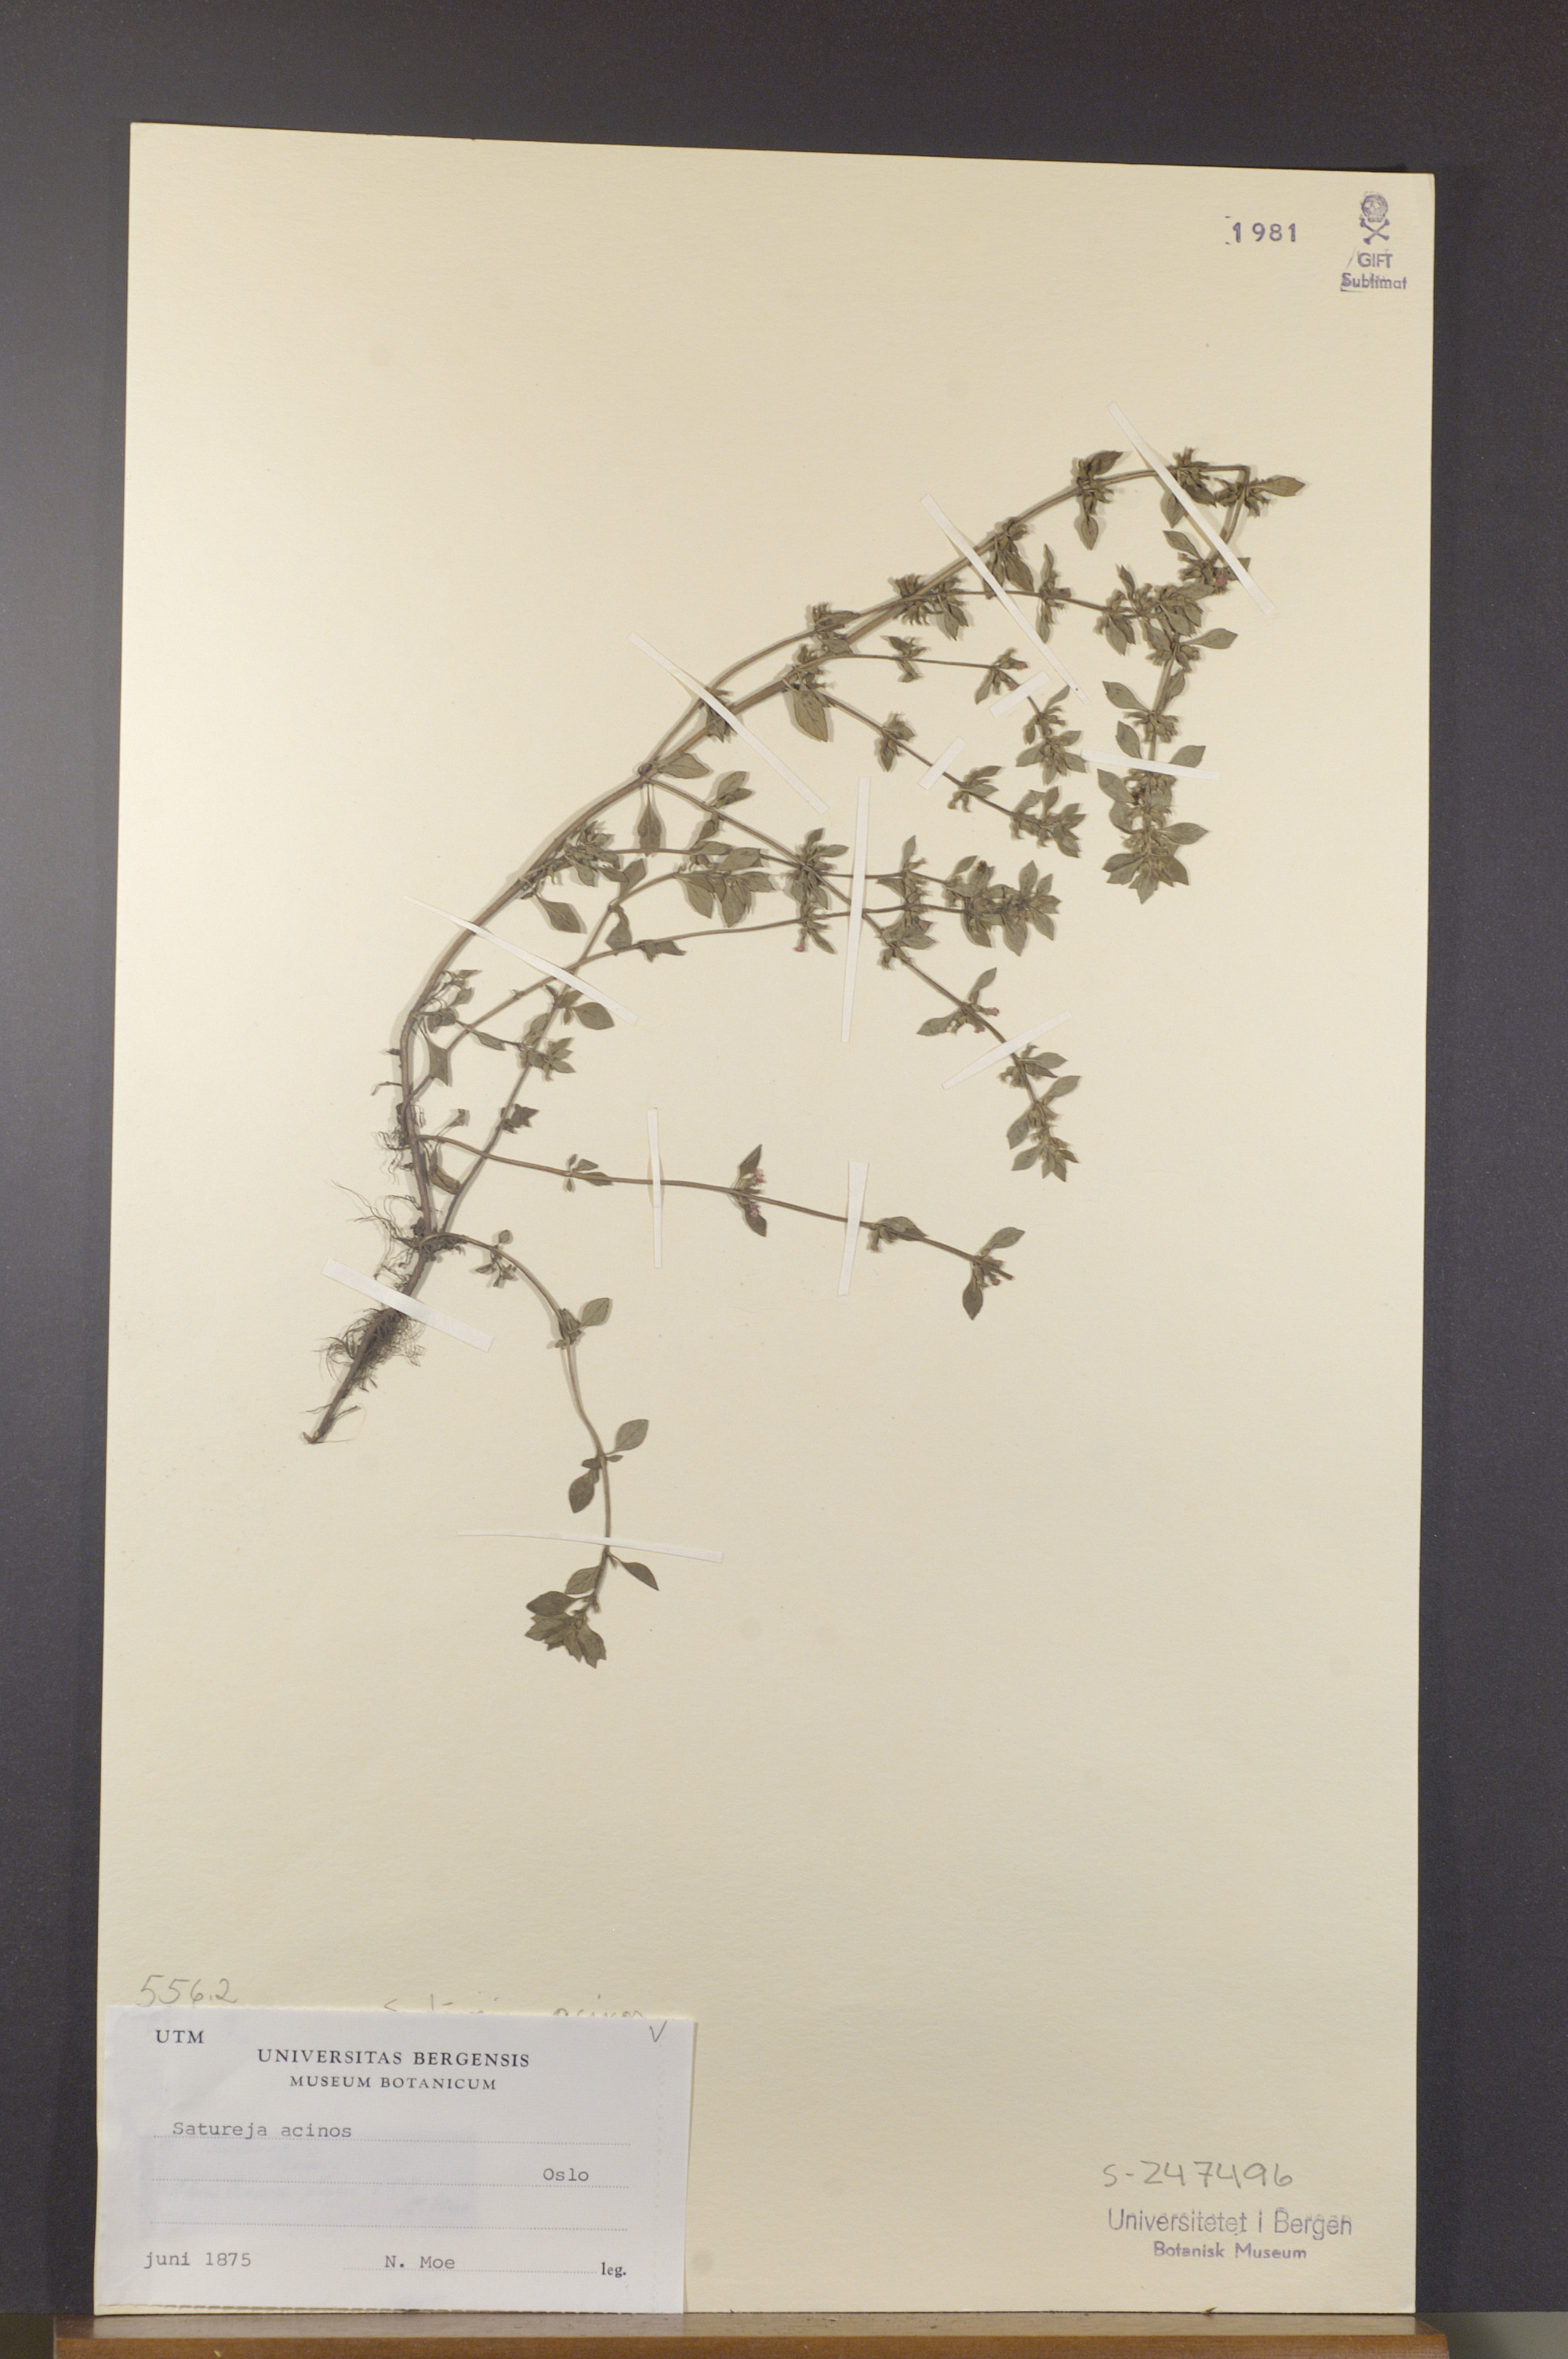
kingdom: Plantae
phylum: Tracheophyta
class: Magnoliopsida
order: Lamiales
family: Lamiaceae
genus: Clinopodium
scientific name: Clinopodium acinos
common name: Basil thyme
